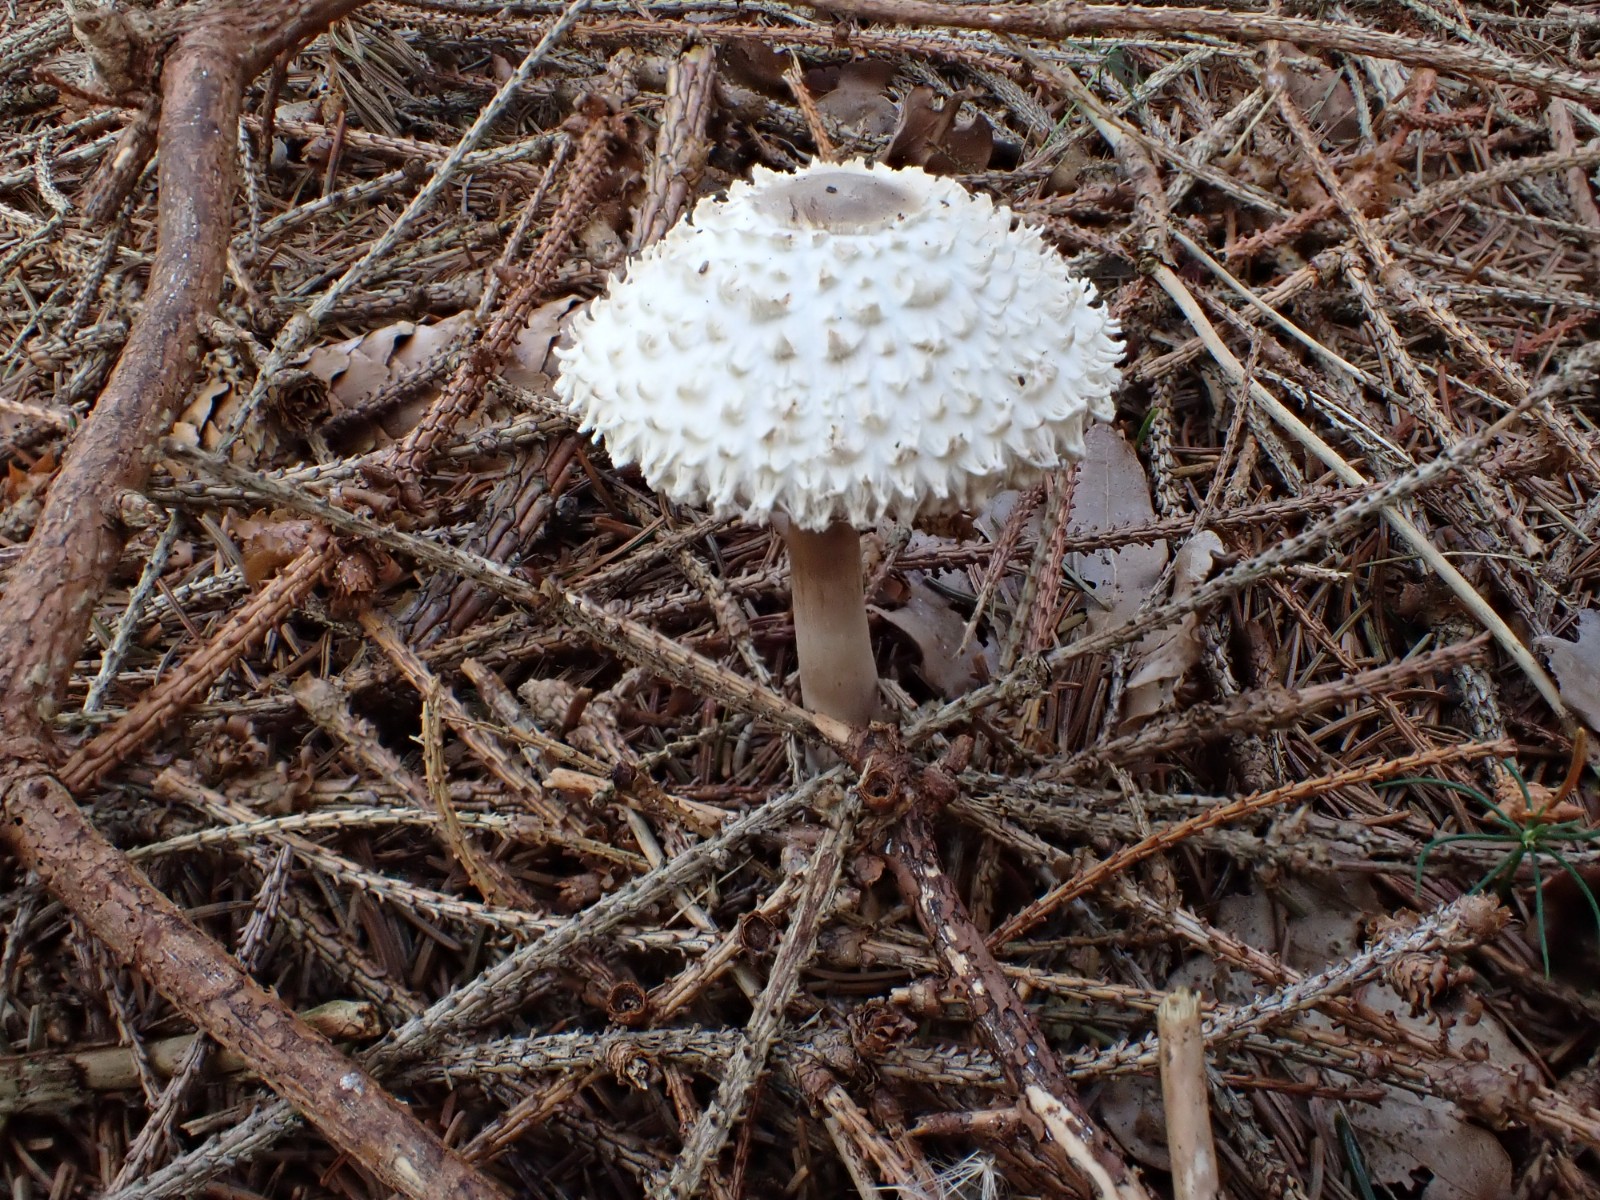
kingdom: Fungi
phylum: Basidiomycota
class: Agaricomycetes
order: Agaricales
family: Agaricaceae
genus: Leucoagaricus
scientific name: Leucoagaricus nympharum
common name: gran-silkehat
